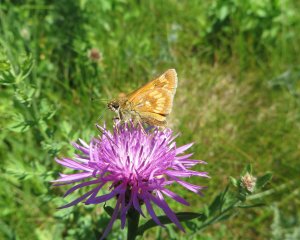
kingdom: Animalia
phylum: Arthropoda
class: Insecta
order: Lepidoptera
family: Hesperiidae
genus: Polites
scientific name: Polites
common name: Long Dash Skipper
